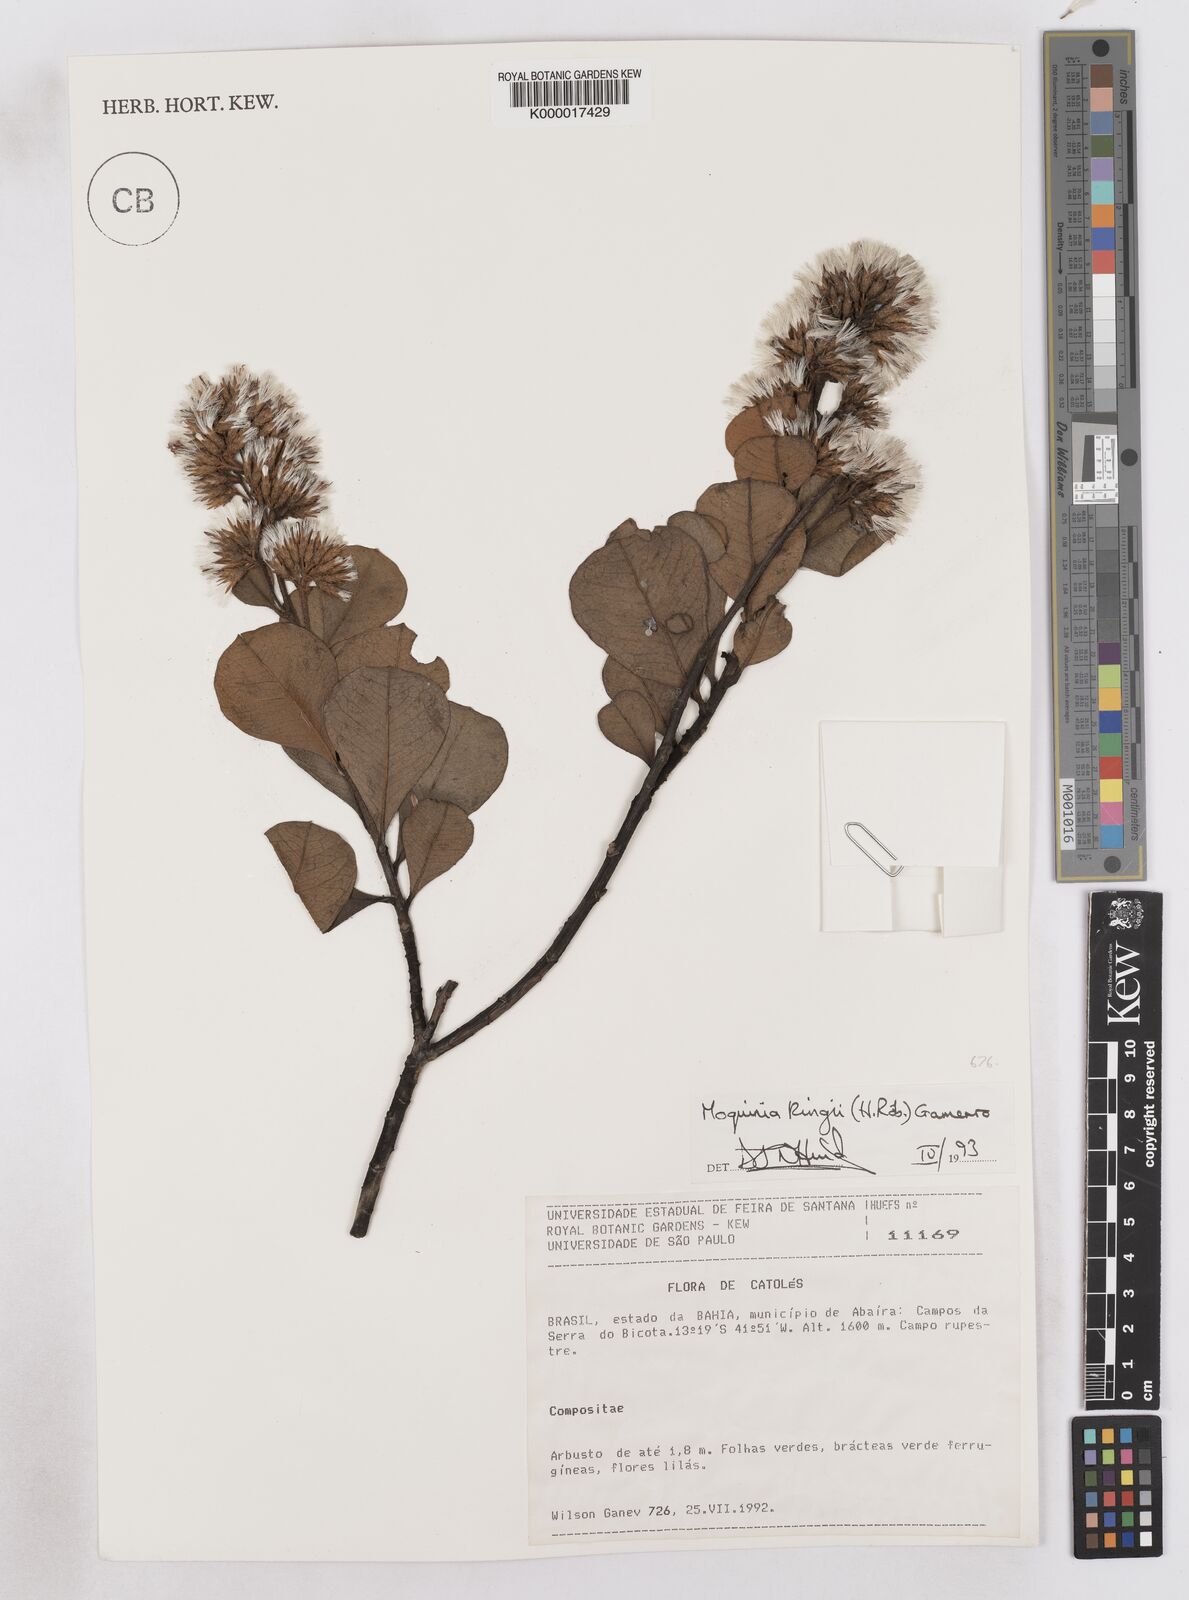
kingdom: Plantae
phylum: Tracheophyta
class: Magnoliopsida
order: Asterales
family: Asteraceae
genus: Pseudostifftia
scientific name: Pseudostifftia kingii
